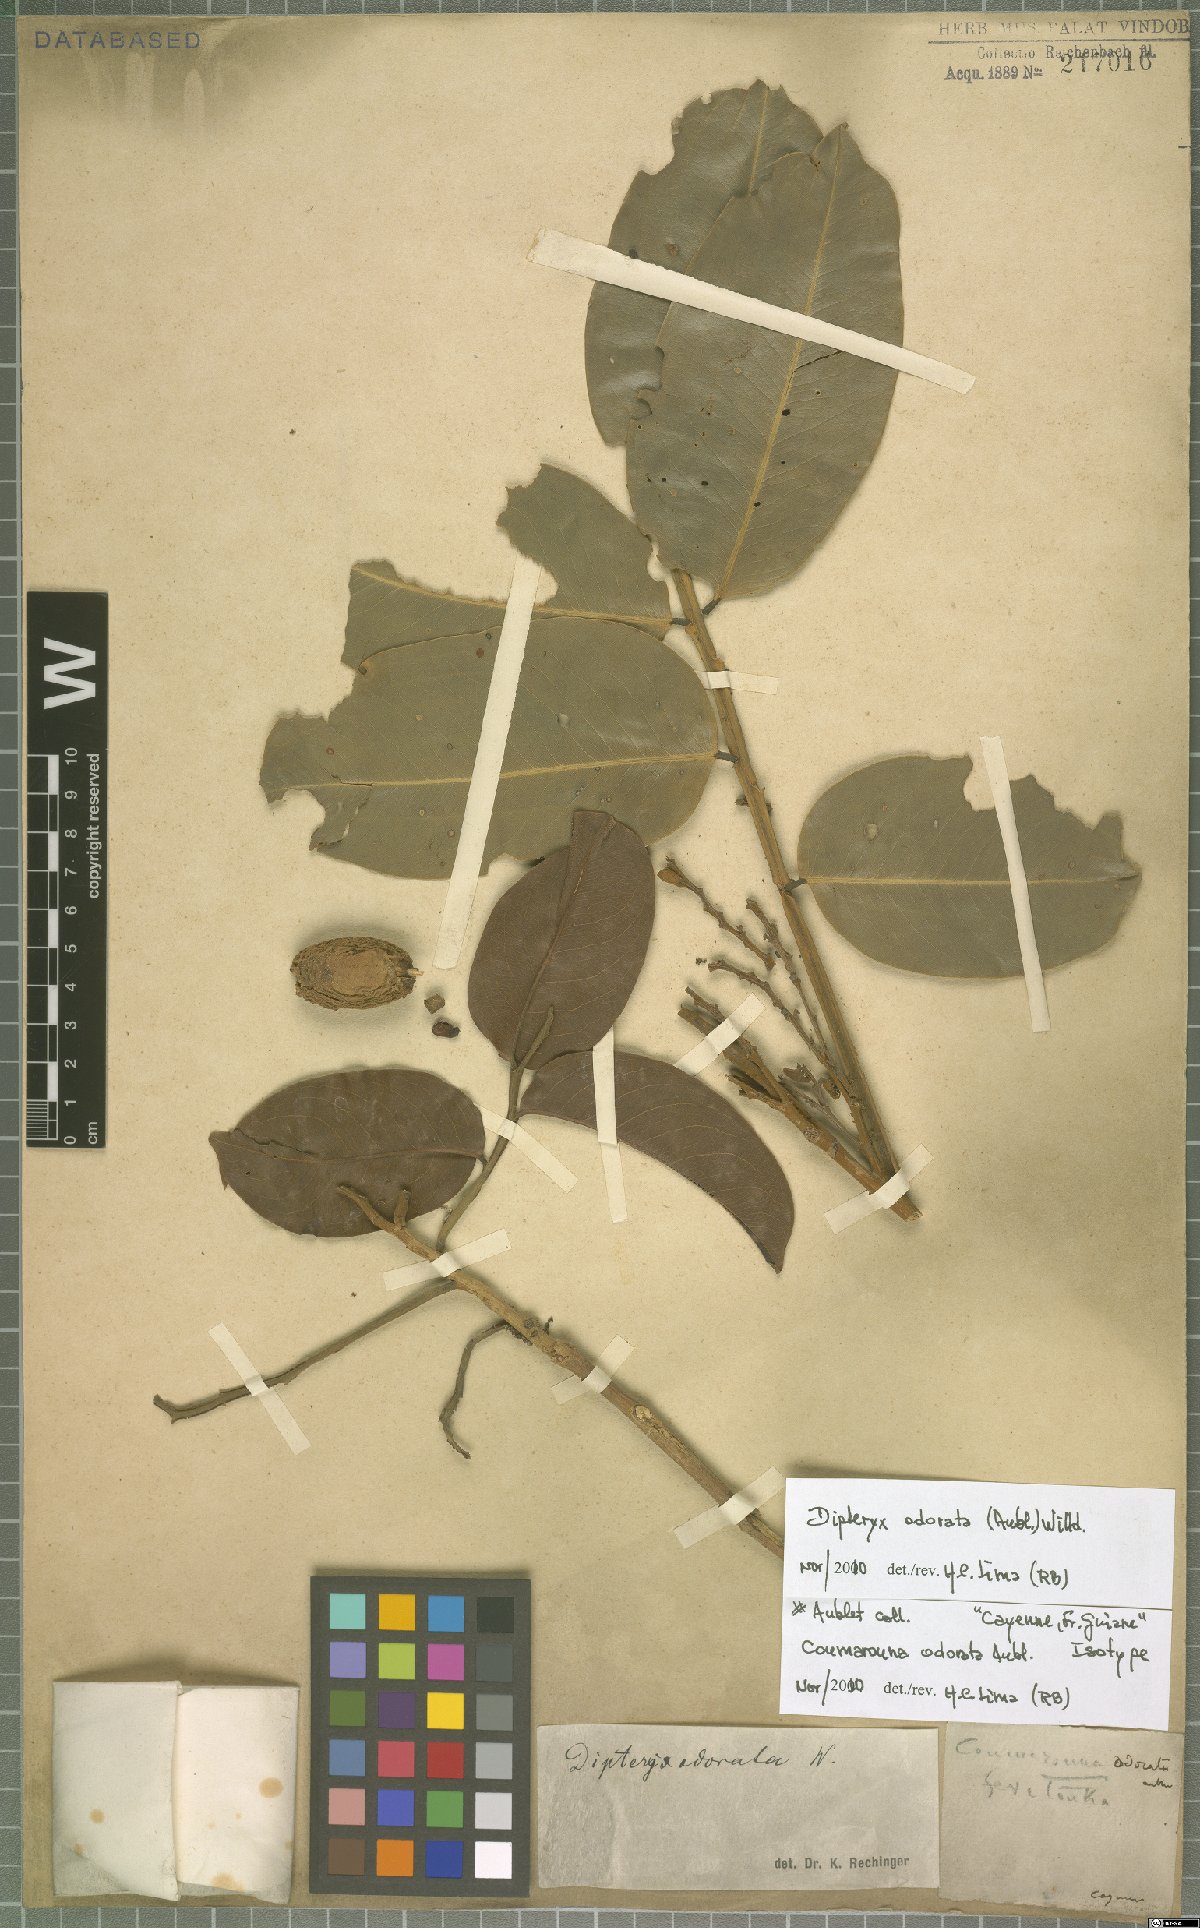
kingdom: Plantae
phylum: Tracheophyta
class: Magnoliopsida
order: Fabales
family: Fabaceae
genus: Dipteryx
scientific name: Dipteryx odorata
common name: Tonka
